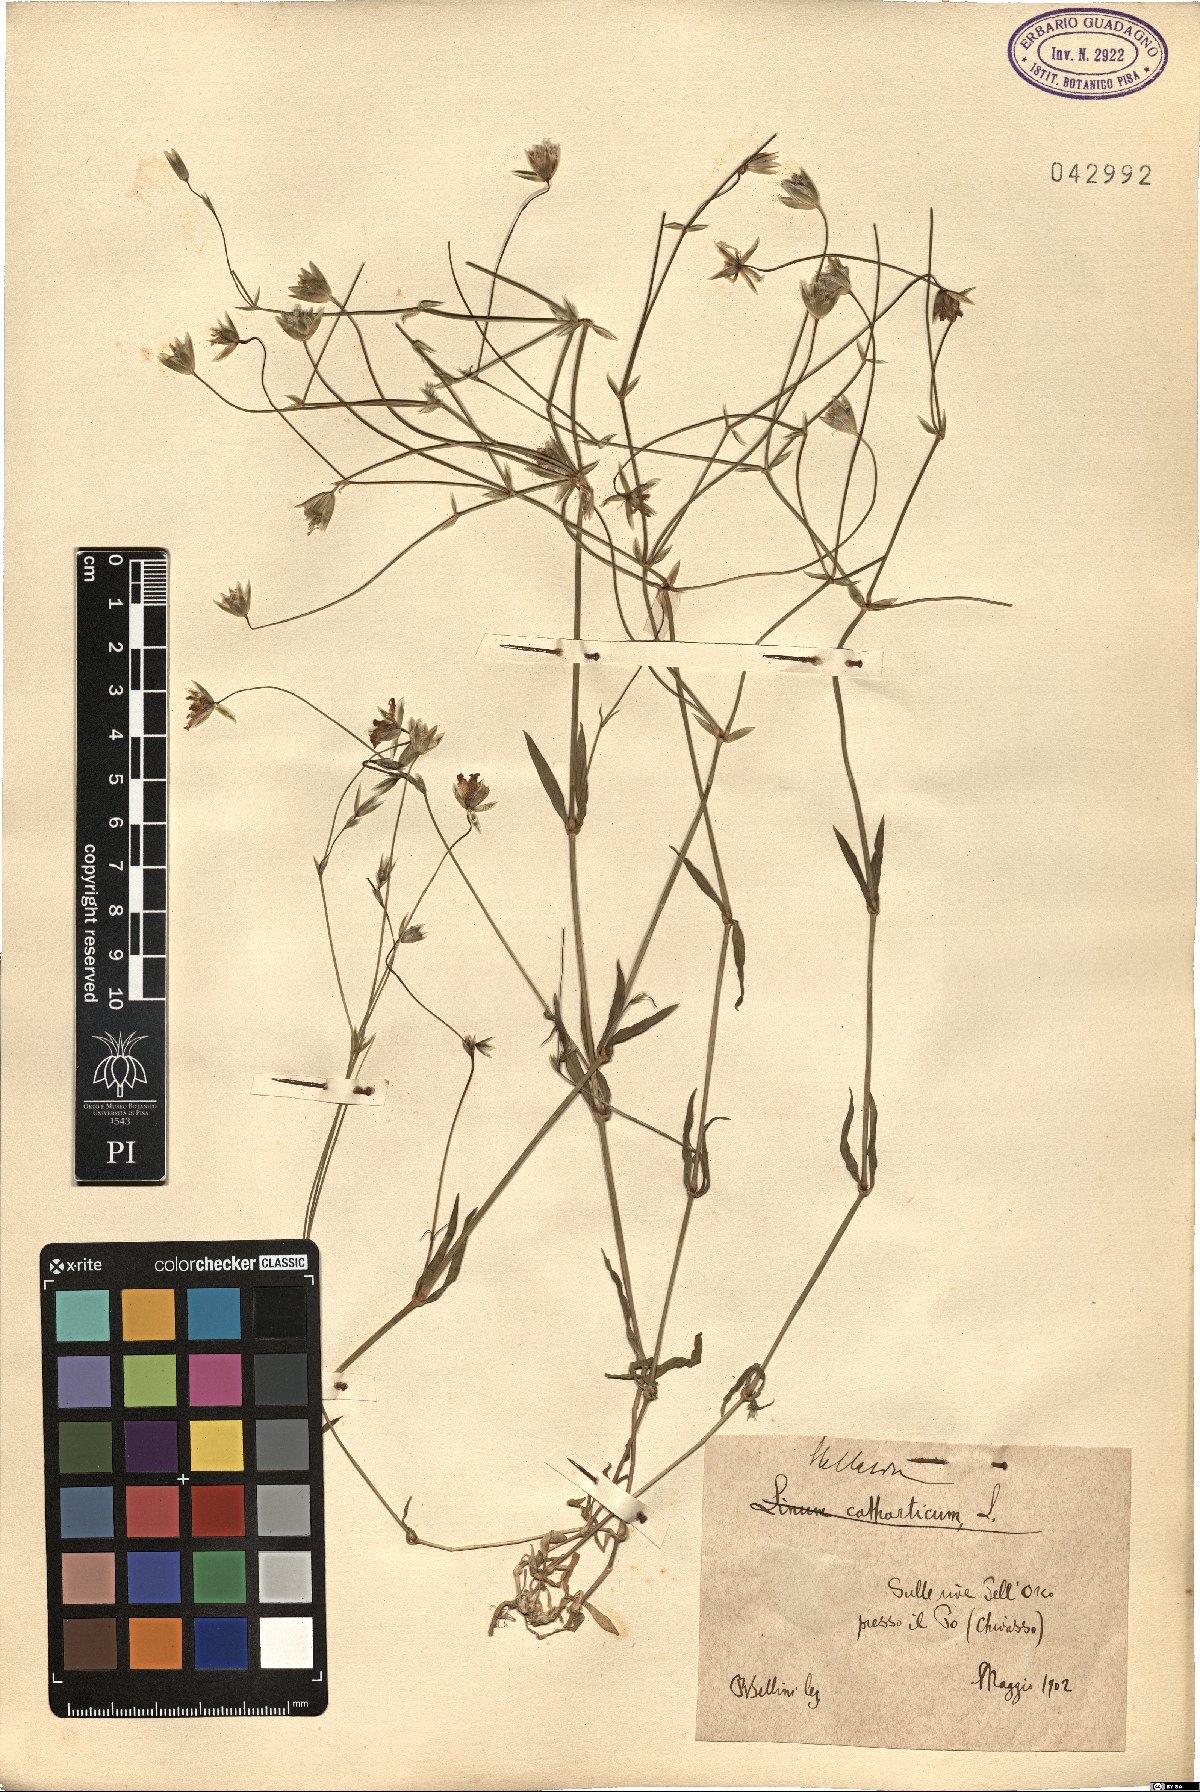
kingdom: Plantae
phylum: Tracheophyta
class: Magnoliopsida
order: Caryophyllales
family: Caryophyllaceae
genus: Stellaria
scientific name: Stellaria
